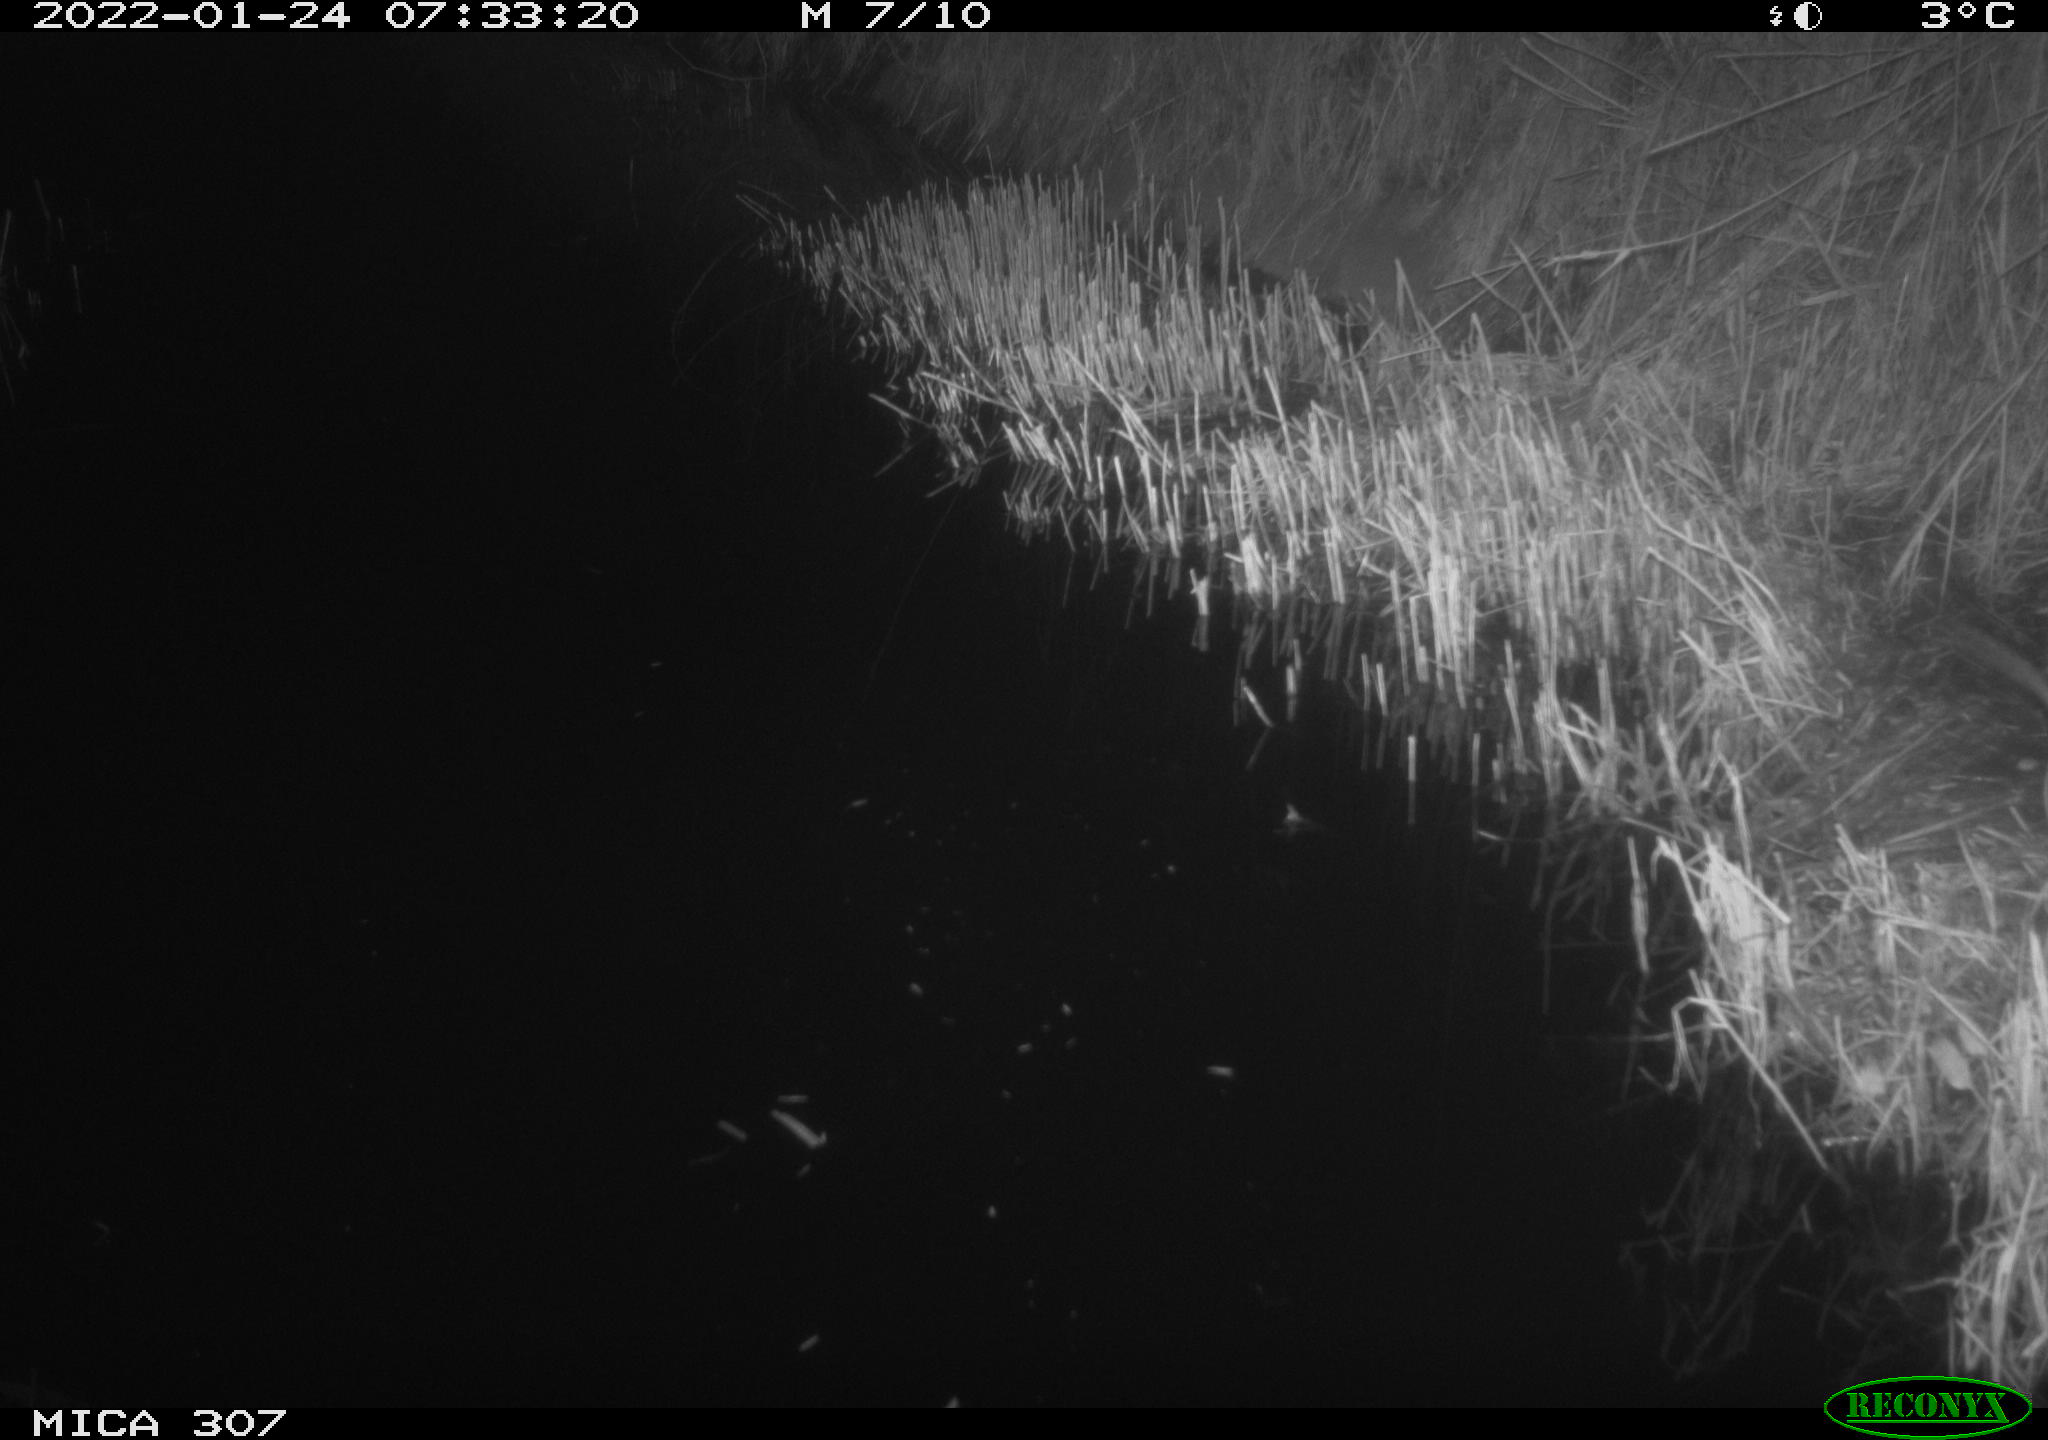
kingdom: Animalia
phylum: Chordata
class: Mammalia
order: Rodentia
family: Muridae
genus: Rattus
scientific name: Rattus norvegicus
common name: Brown rat
